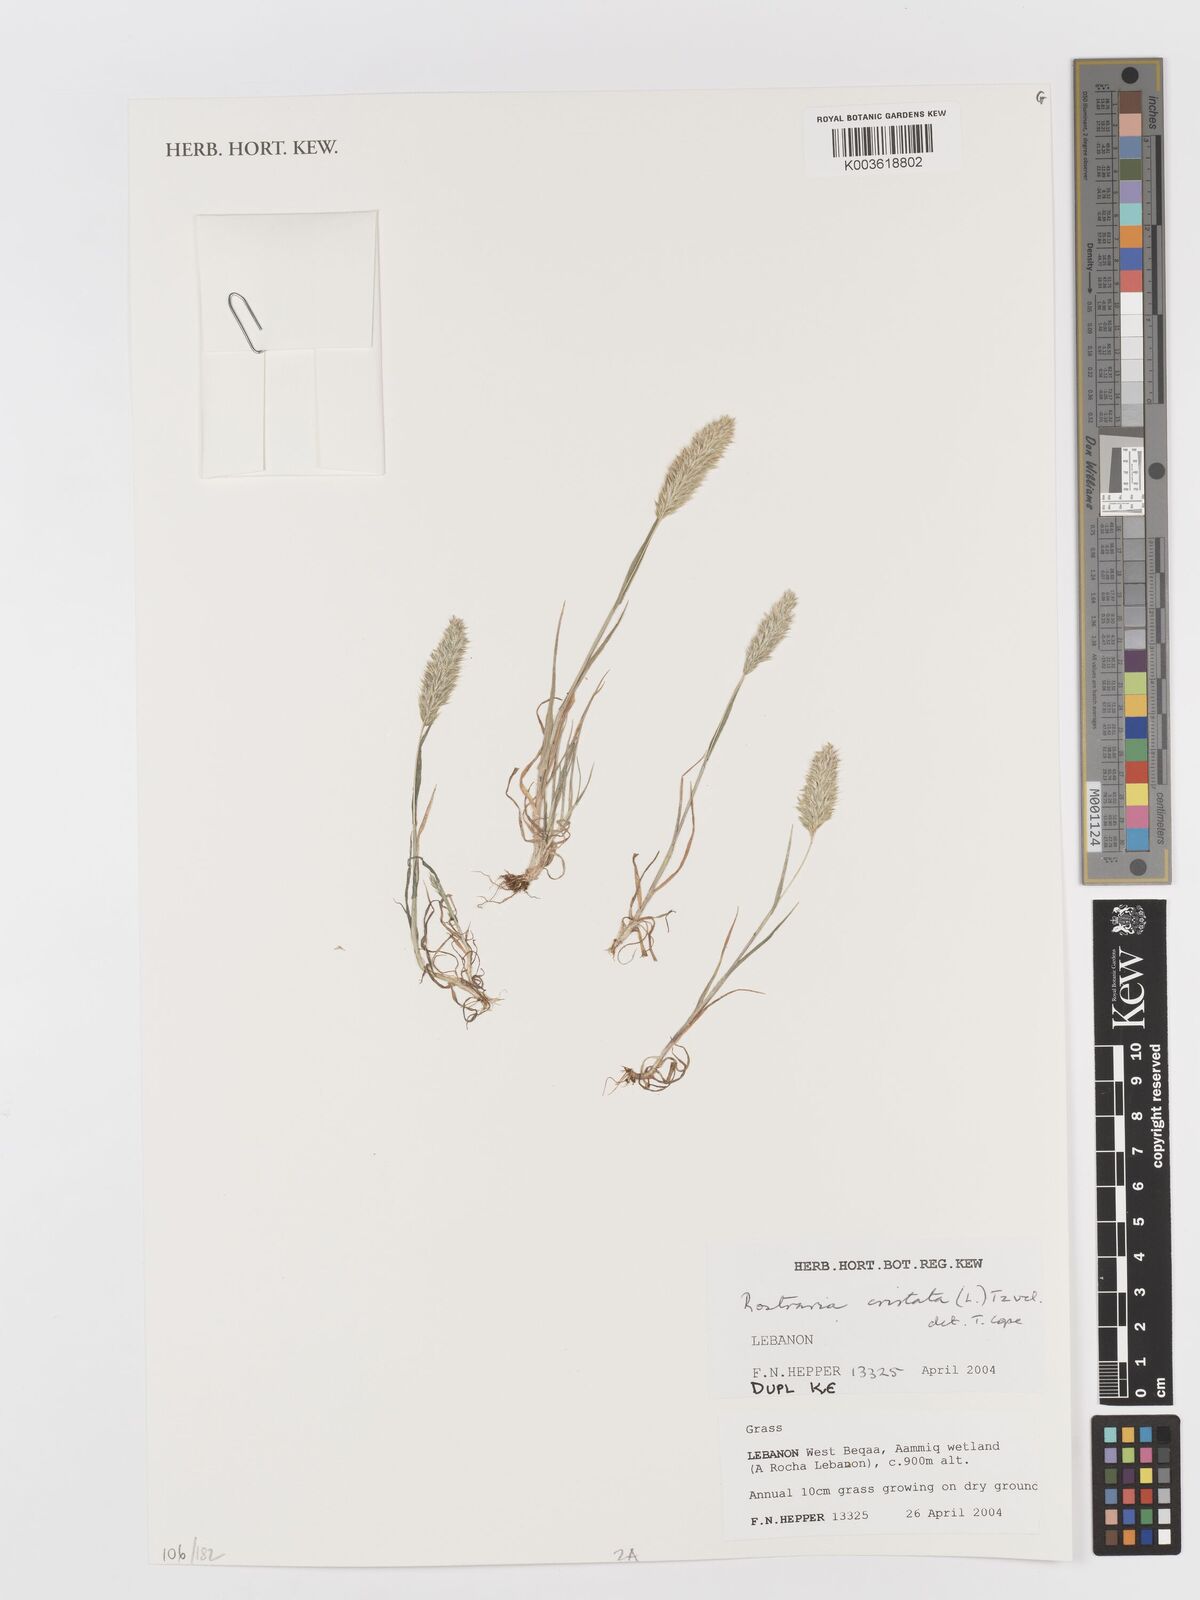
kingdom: Plantae
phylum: Tracheophyta
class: Liliopsida
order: Poales
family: Poaceae
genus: Rostraria
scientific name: Rostraria cristata
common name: Mediterranean hair-grass
